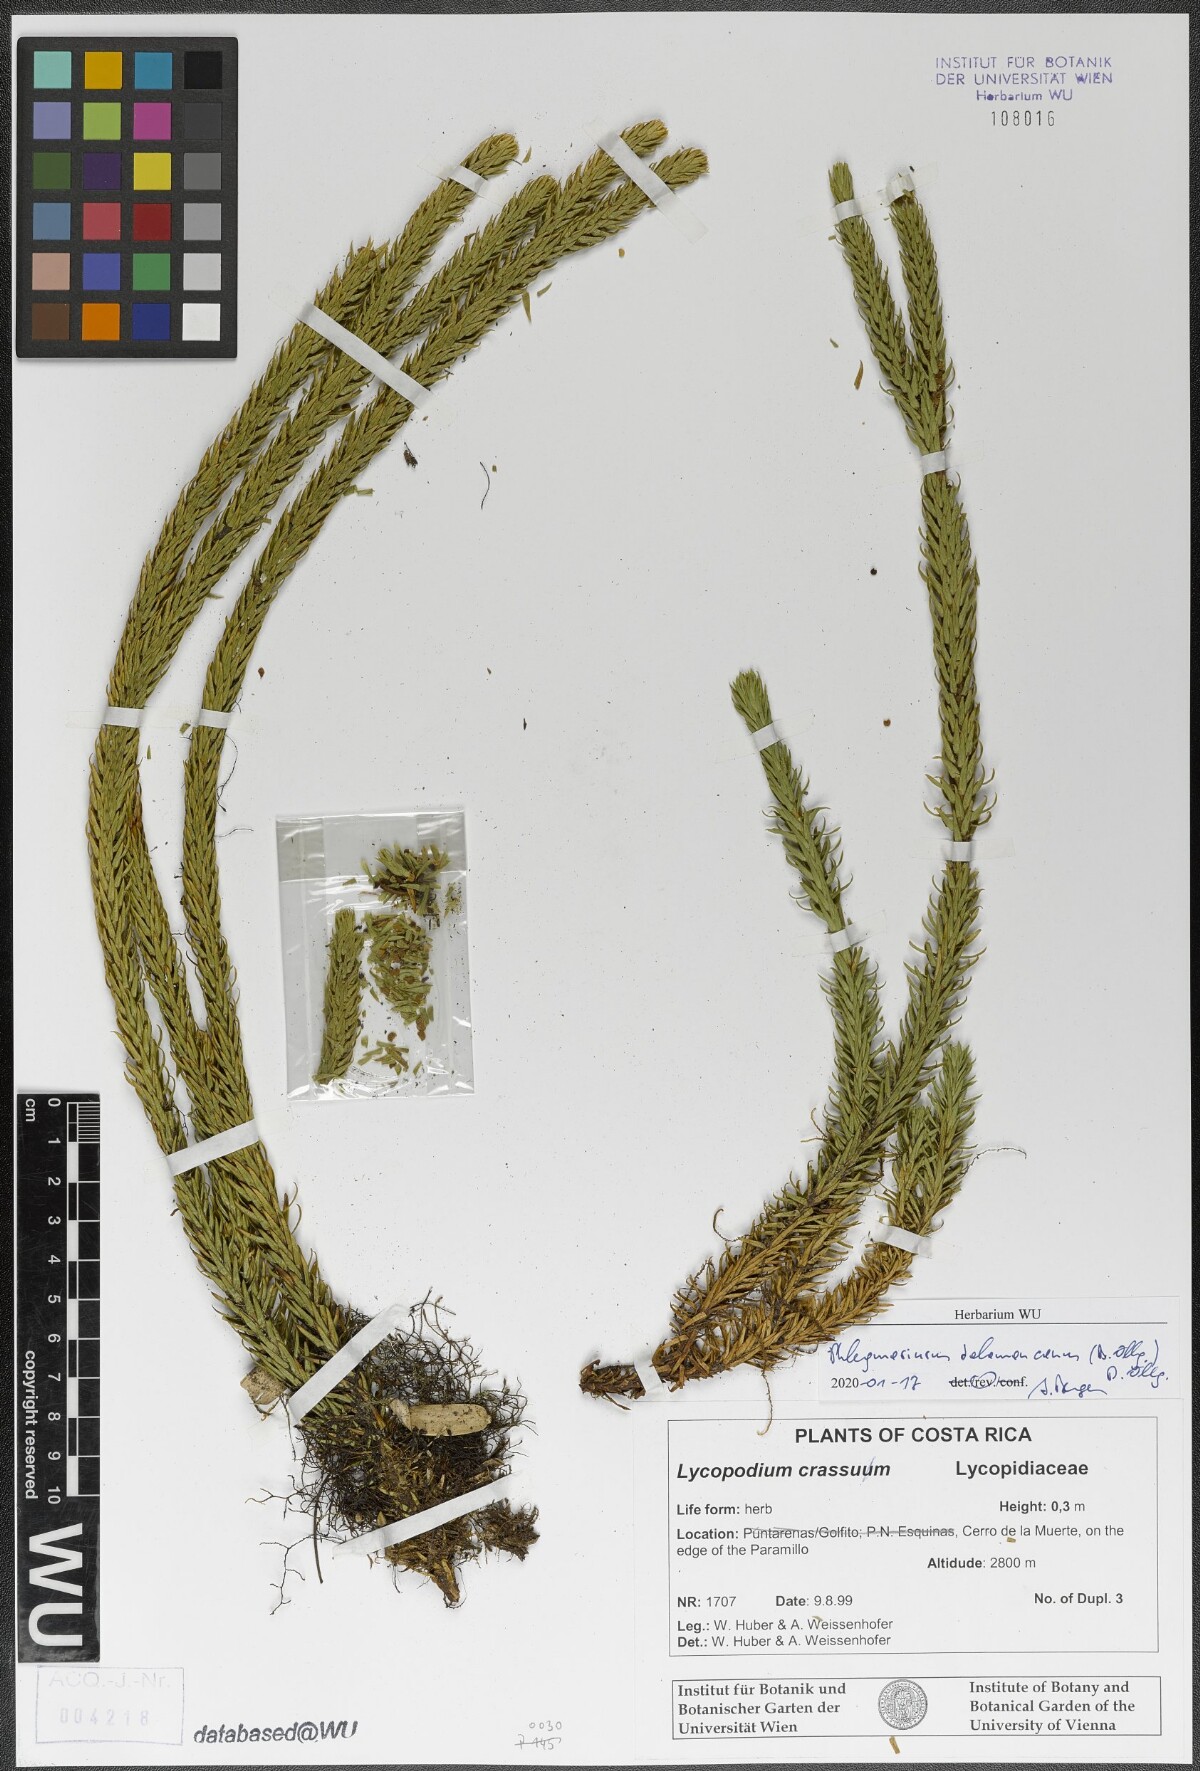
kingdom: Plantae
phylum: Tracheophyta
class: Lycopodiopsida
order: Lycopodiales
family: Lycopodiaceae
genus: Phlegmariurus
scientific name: Phlegmariurus talamancanus
